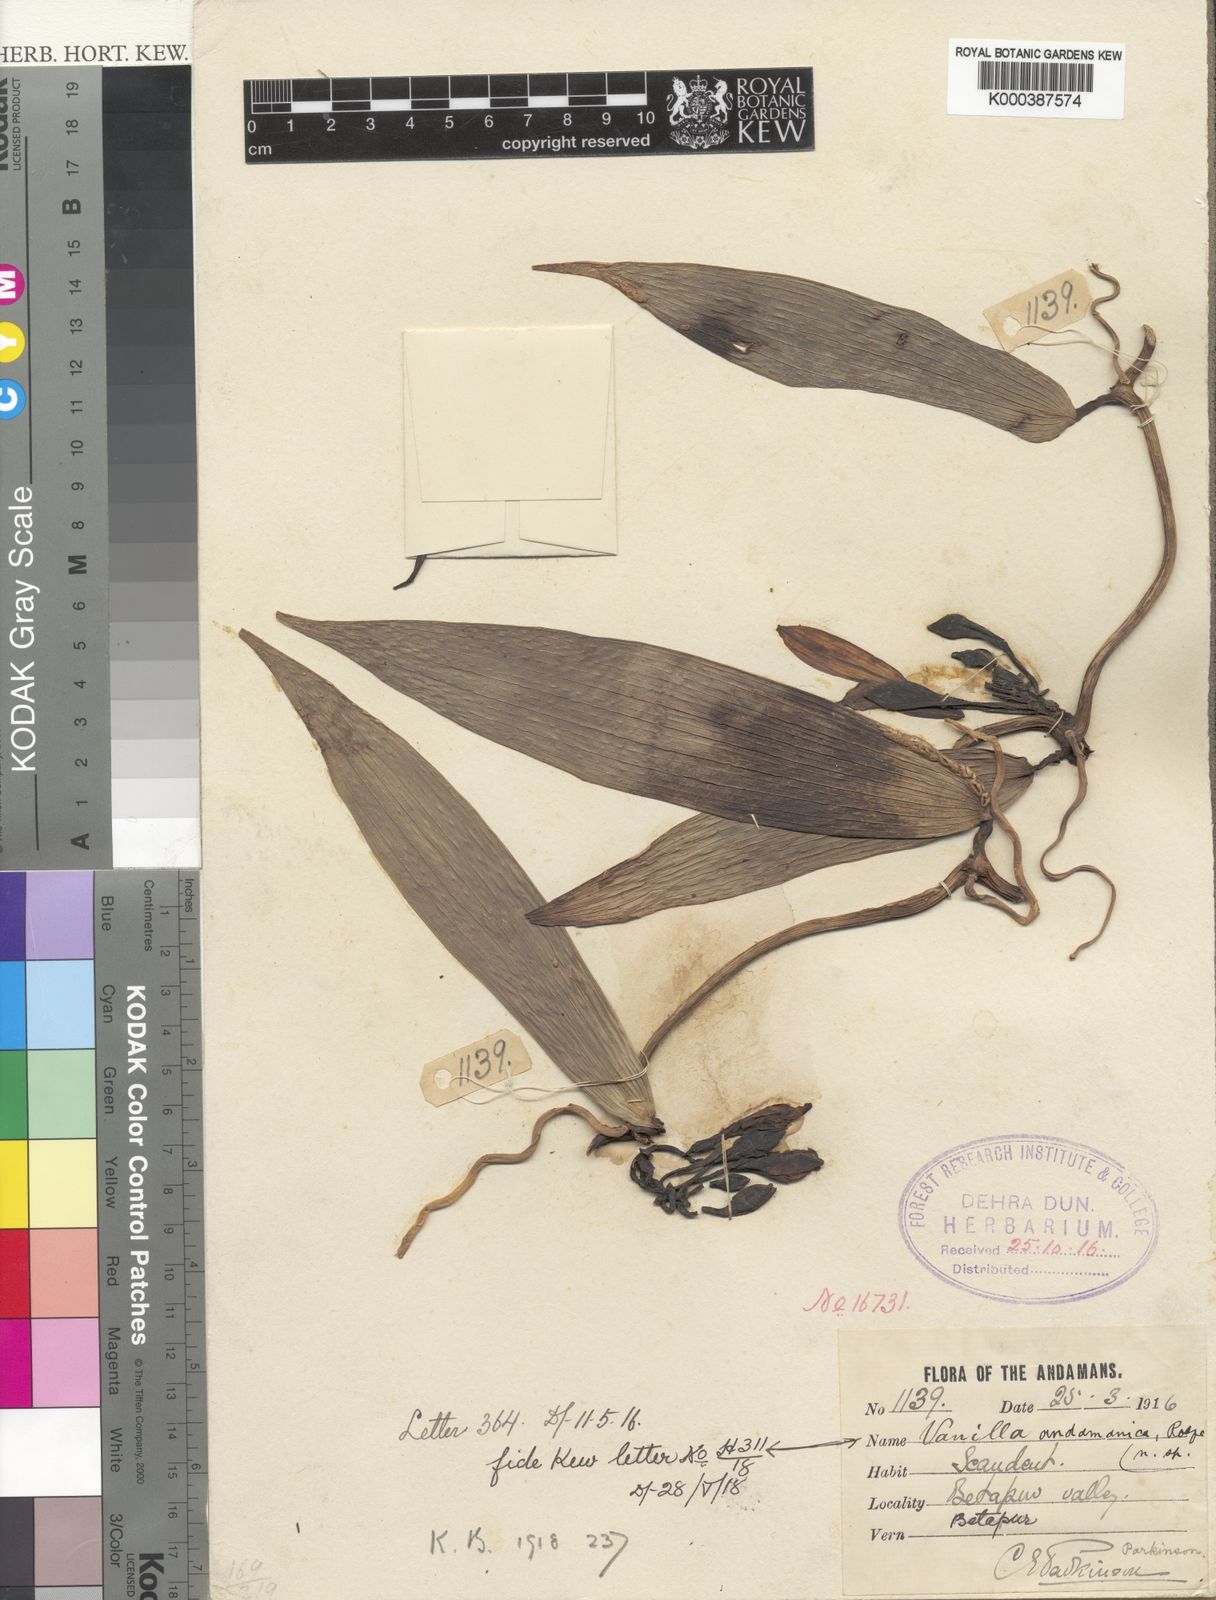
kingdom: Plantae
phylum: Tracheophyta
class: Liliopsida
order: Asparagales
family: Orchidaceae
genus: Vanilla
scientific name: Vanilla andamanica
